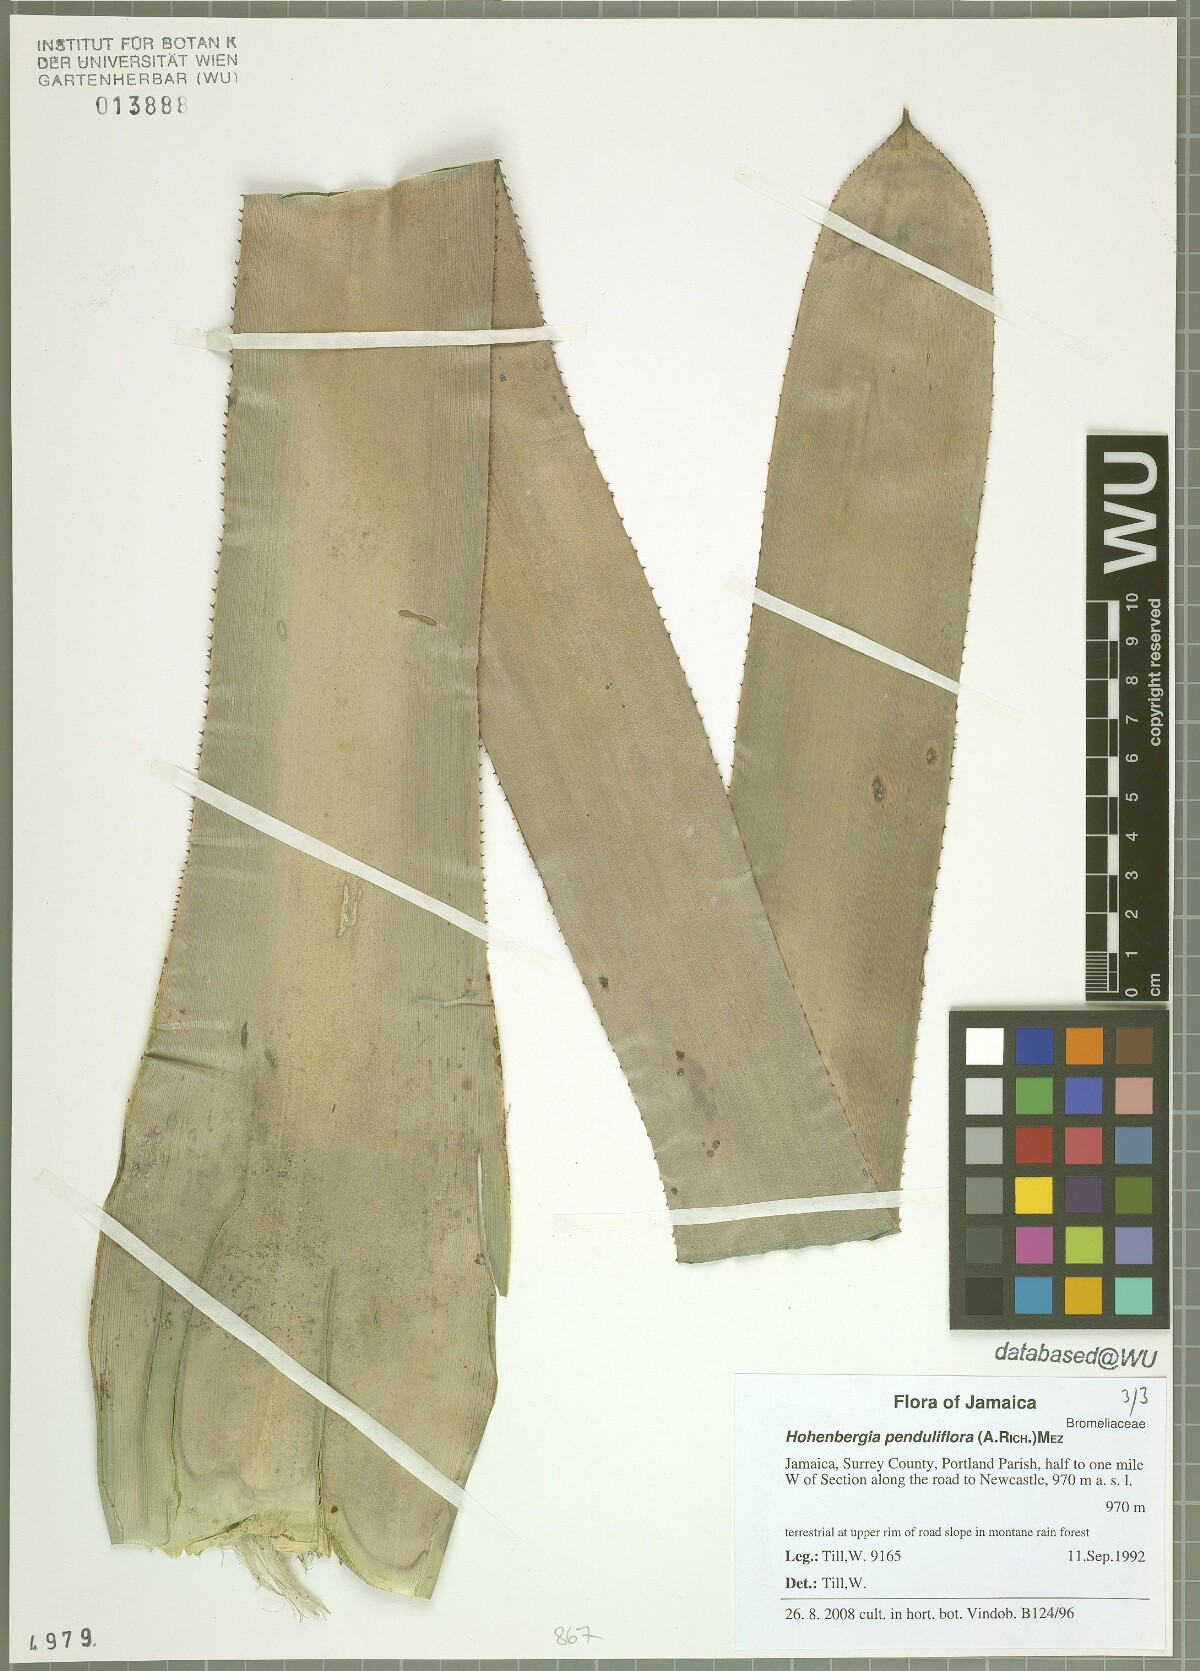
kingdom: Plantae
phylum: Tracheophyta
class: Liliopsida
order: Poales
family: Bromeliaceae
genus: Wittmackia
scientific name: Wittmackia penduliflora
